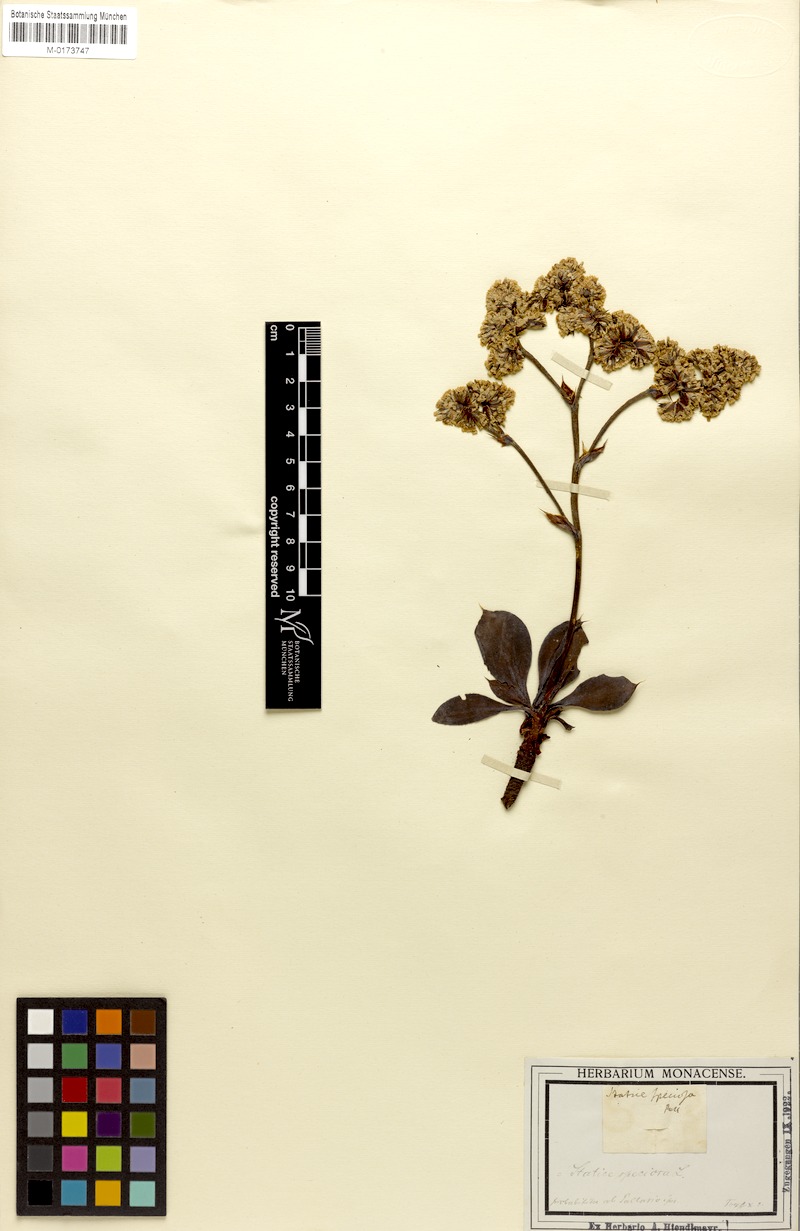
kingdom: Plantae
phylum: Tracheophyta
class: Magnoliopsida
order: Caryophyllales
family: Plumbaginaceae
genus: Goniolimon
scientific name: Goniolimon speciosum
